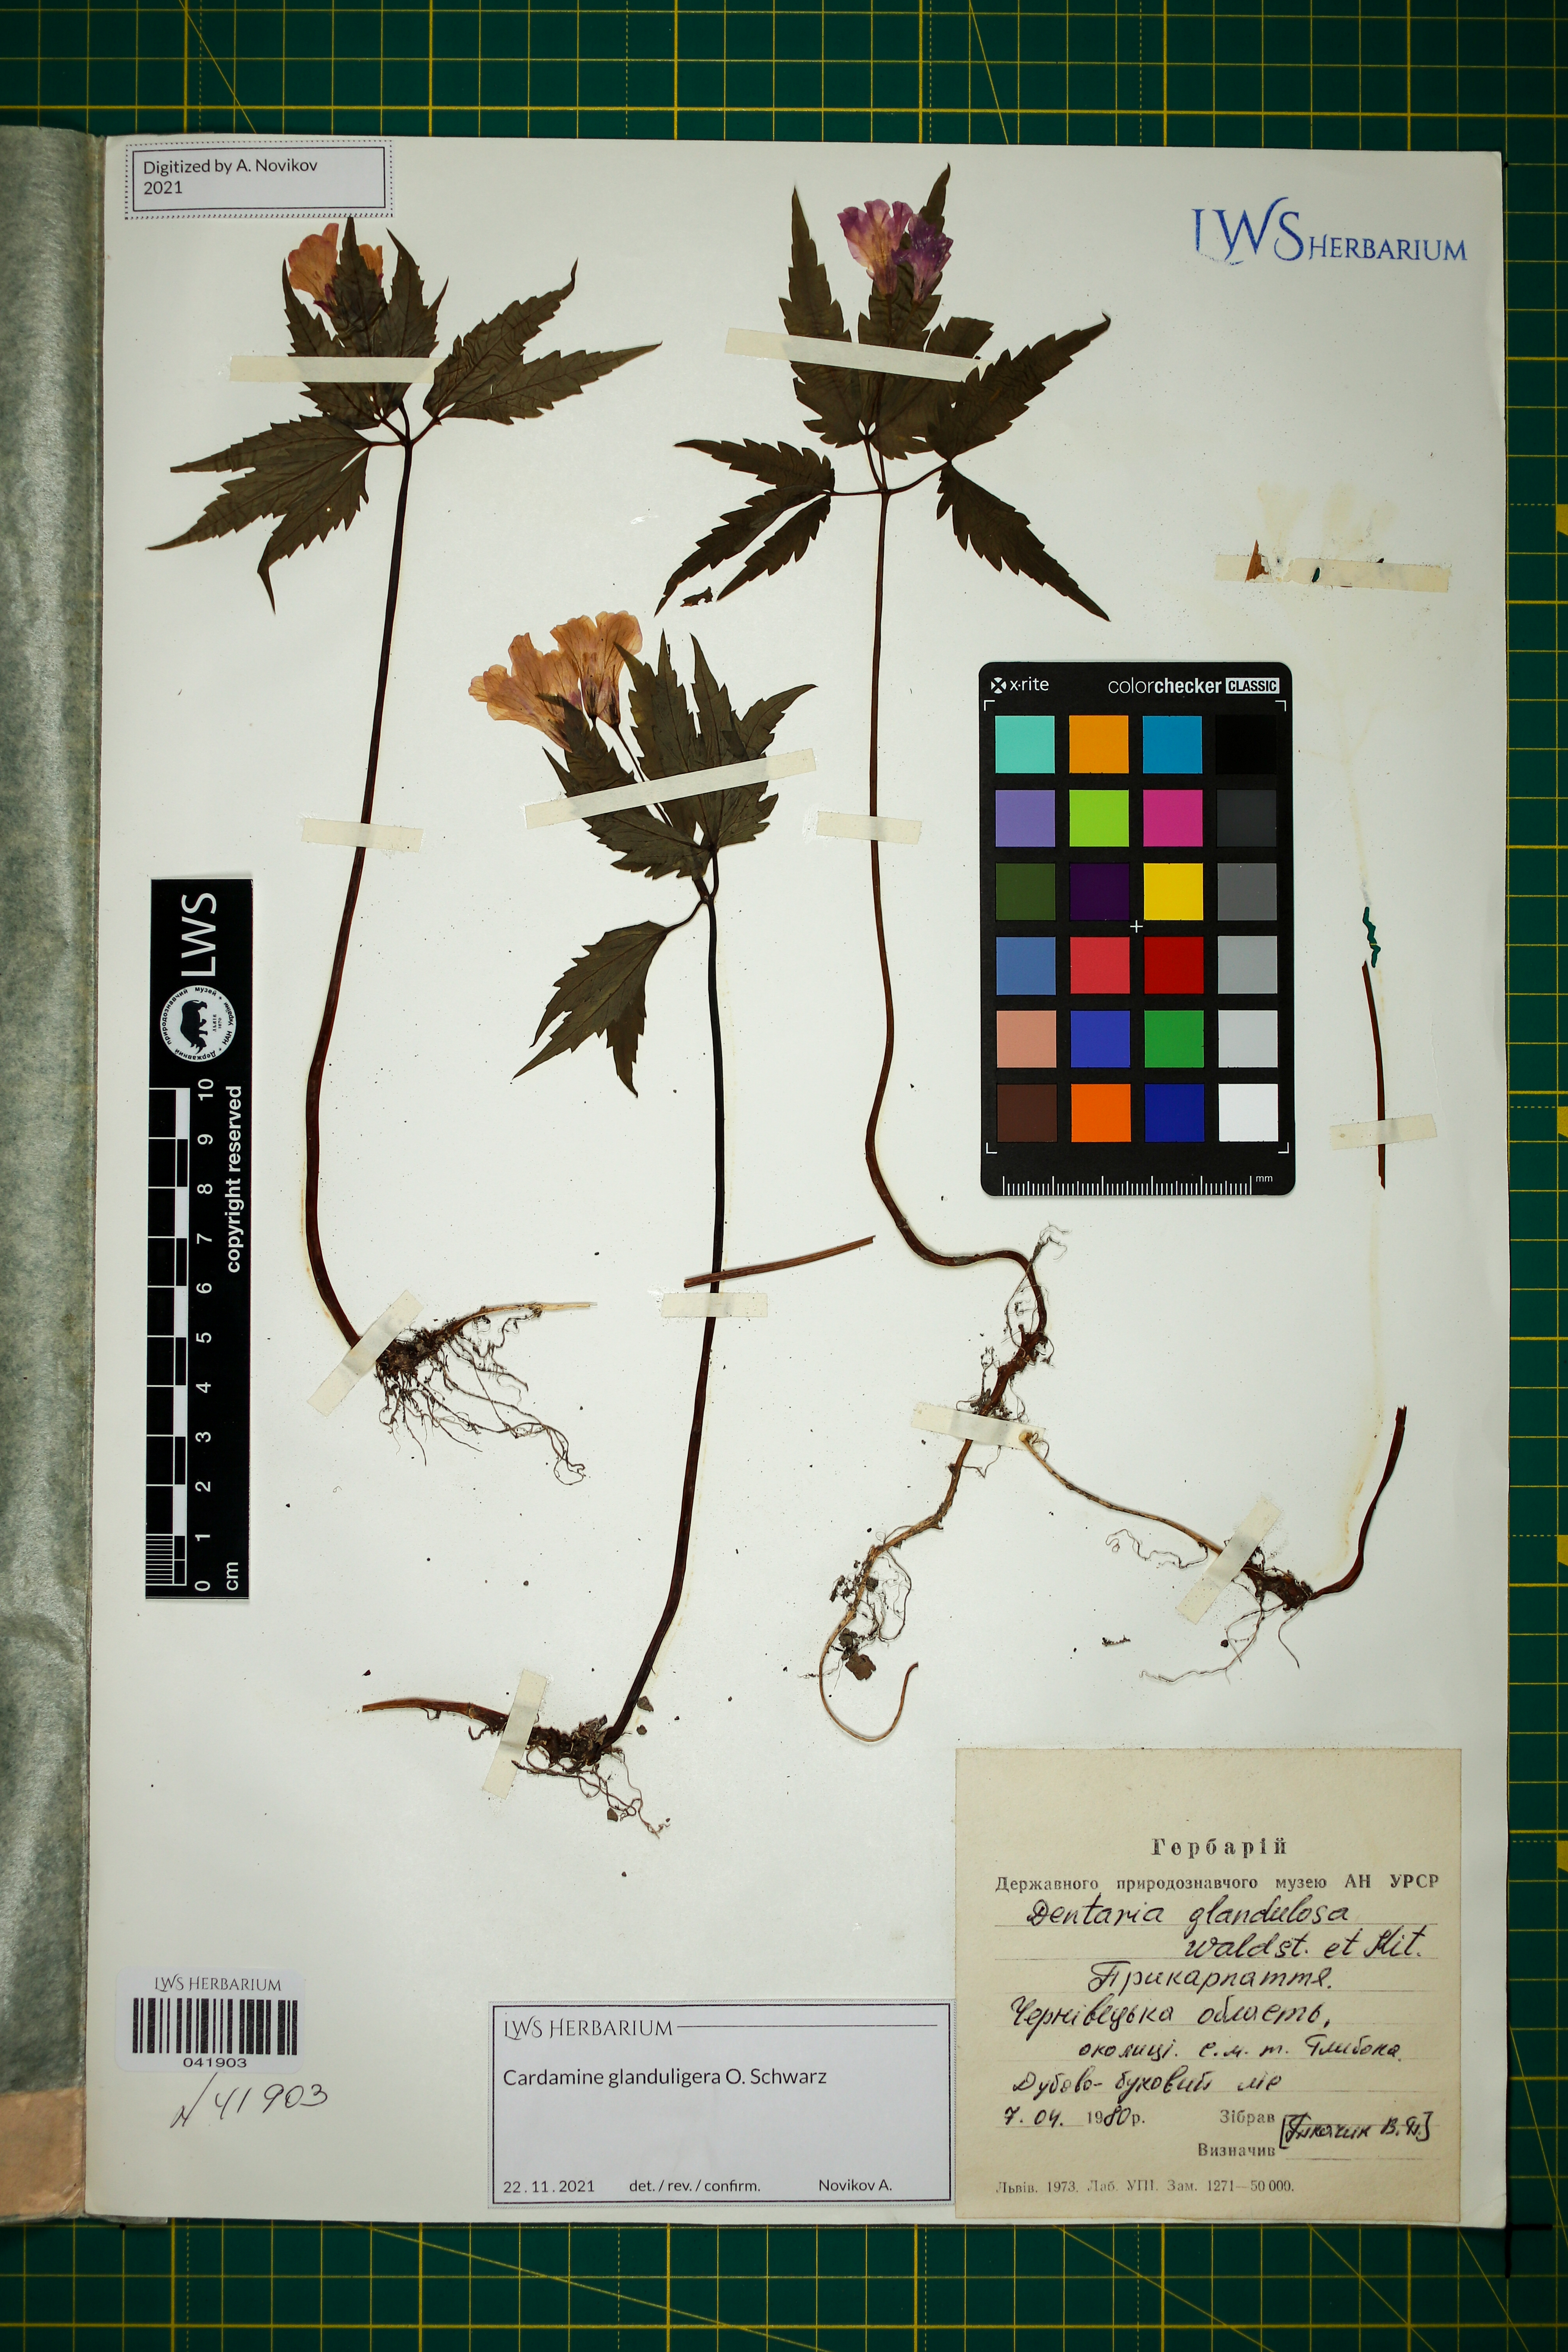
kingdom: Plantae
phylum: Tracheophyta
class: Magnoliopsida
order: Brassicales
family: Brassicaceae
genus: Cardamine
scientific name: Cardamine glanduligera
